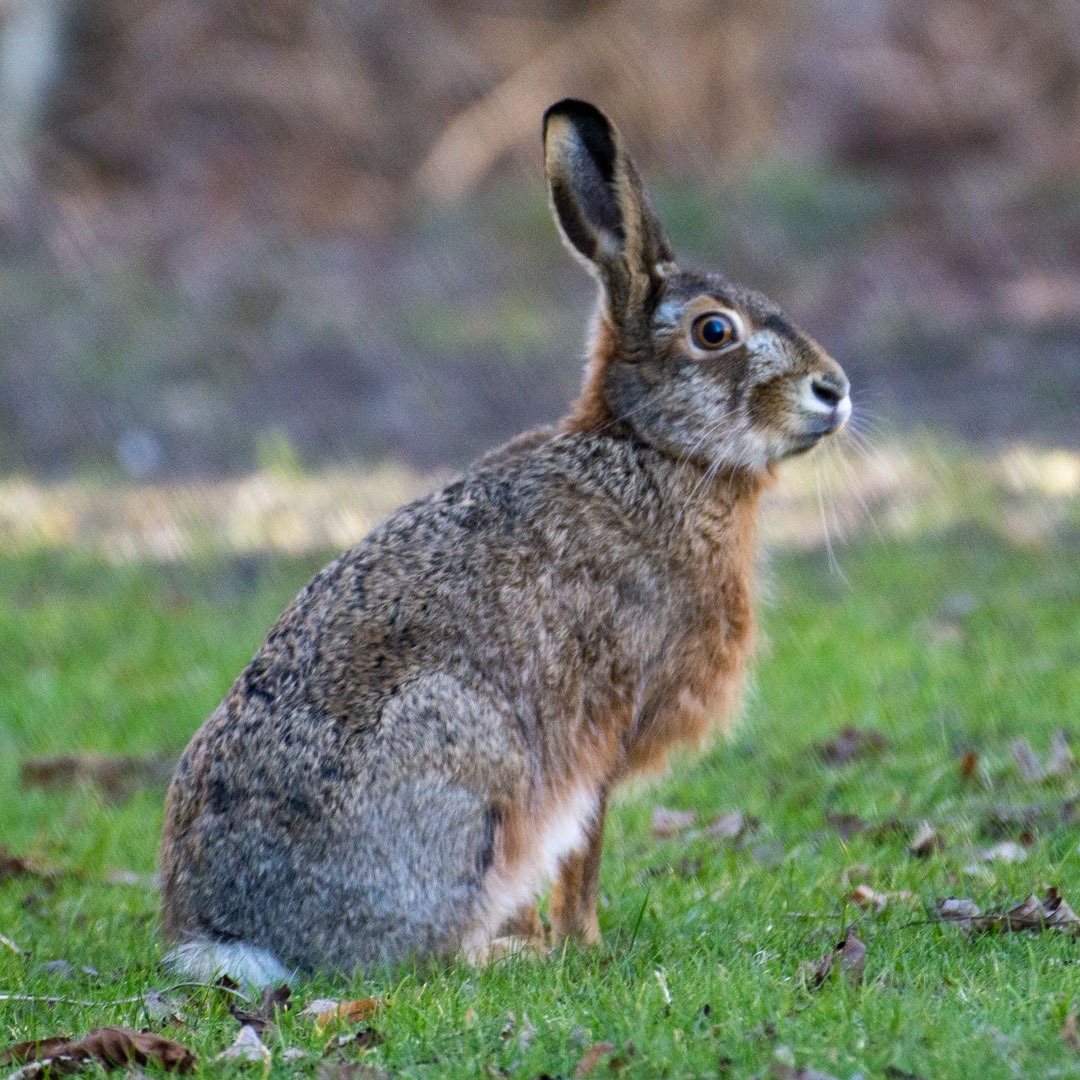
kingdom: Animalia
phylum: Chordata
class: Mammalia
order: Lagomorpha
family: Leporidae
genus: Lepus
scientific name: Lepus europaeus
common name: Hare
